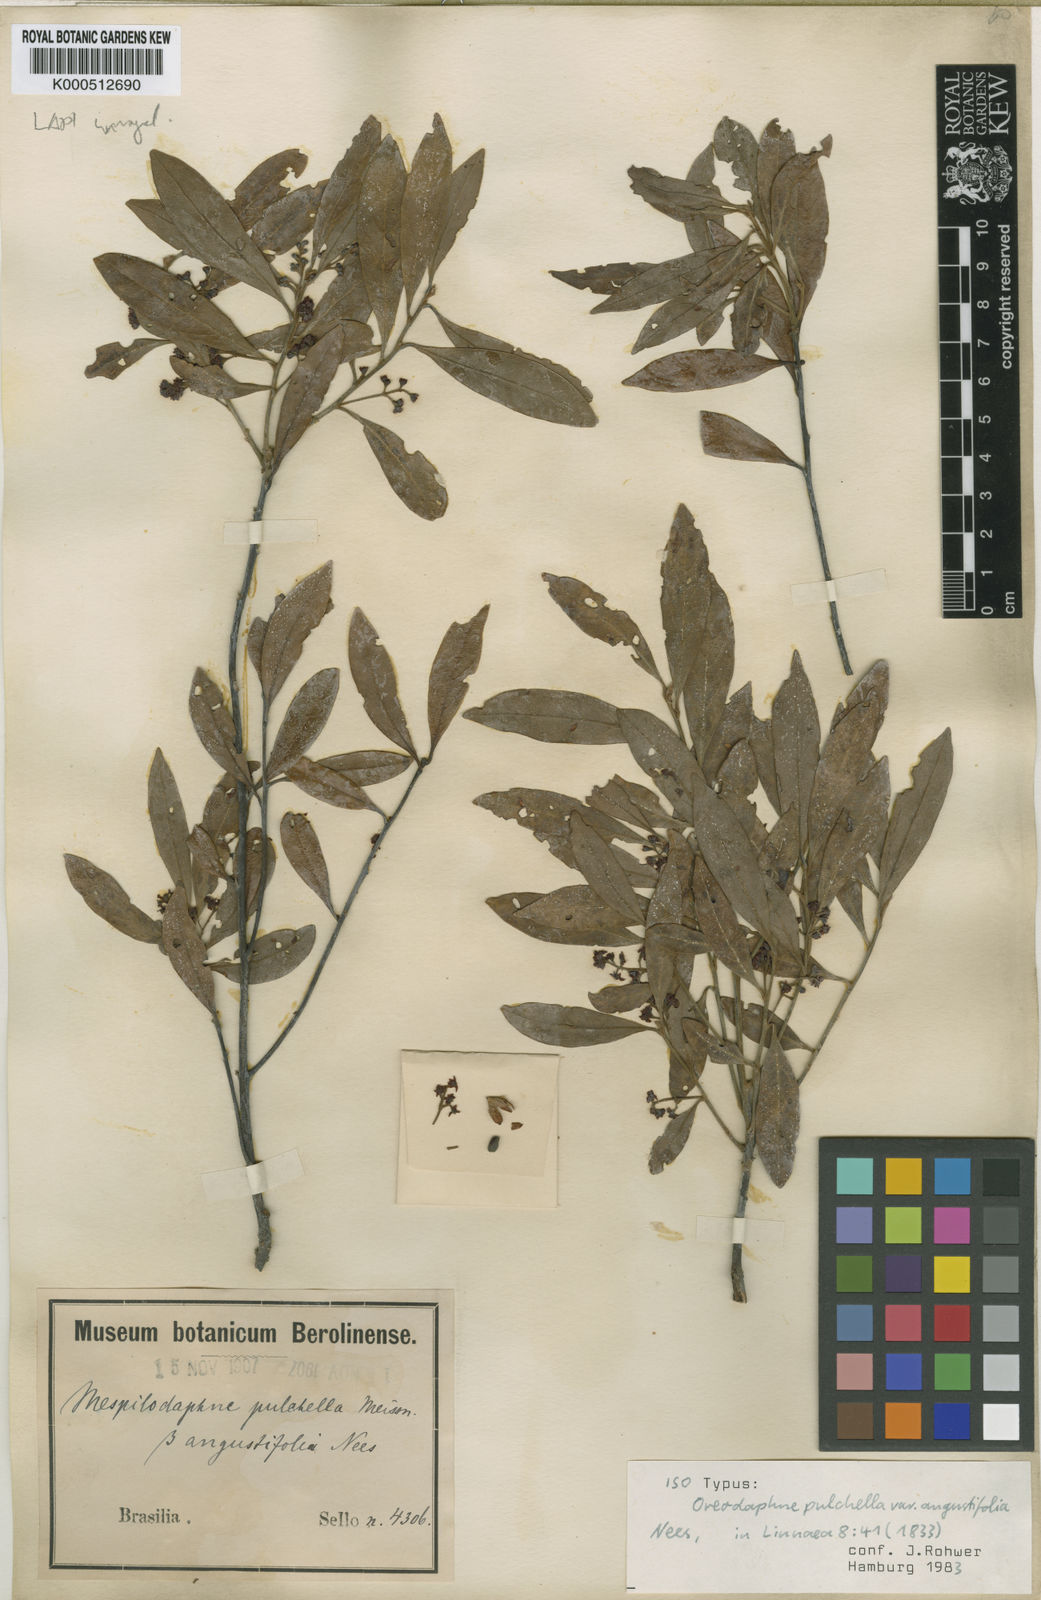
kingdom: Plantae
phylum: Tracheophyta
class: Magnoliopsida
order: Laurales
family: Lauraceae
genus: Mespilodaphne
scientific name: Mespilodaphne pulchella
